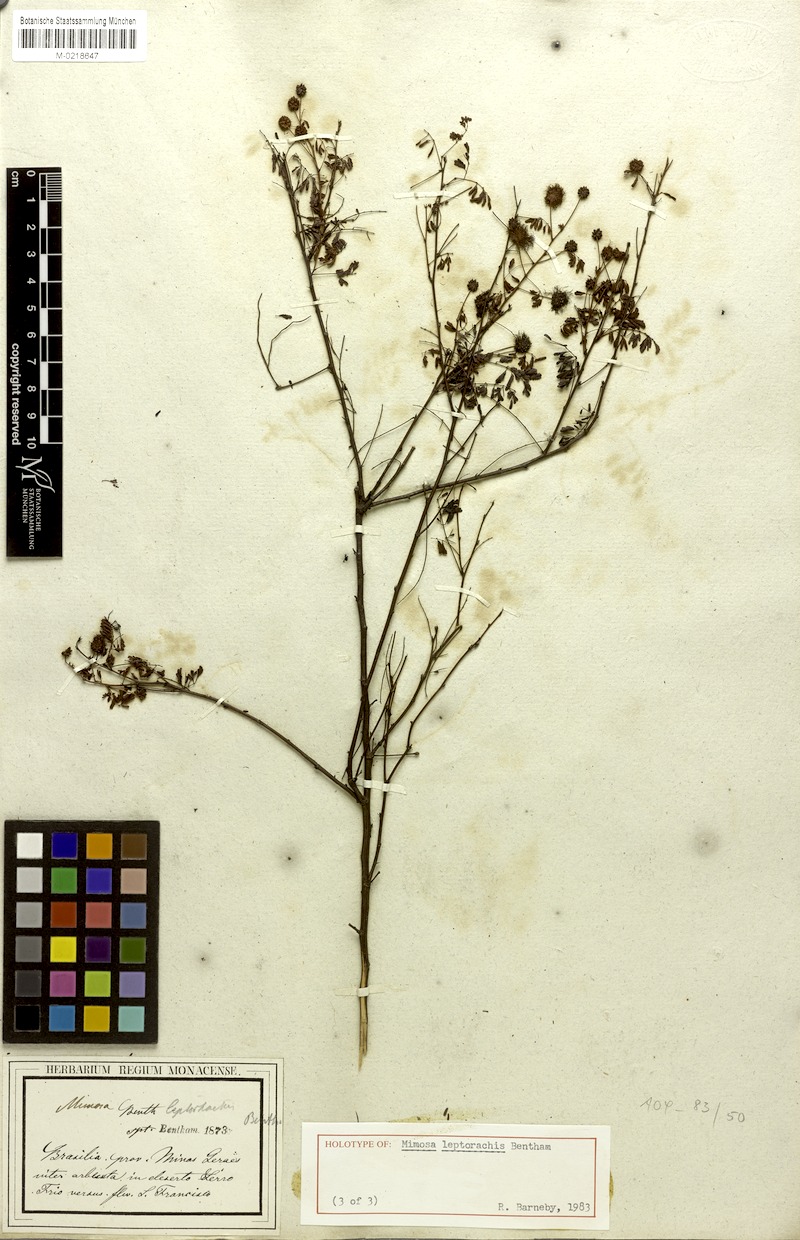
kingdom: Plantae
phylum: Tracheophyta
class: Magnoliopsida
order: Fabales
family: Fabaceae
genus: Mimosa
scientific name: Mimosa leptorhachis
